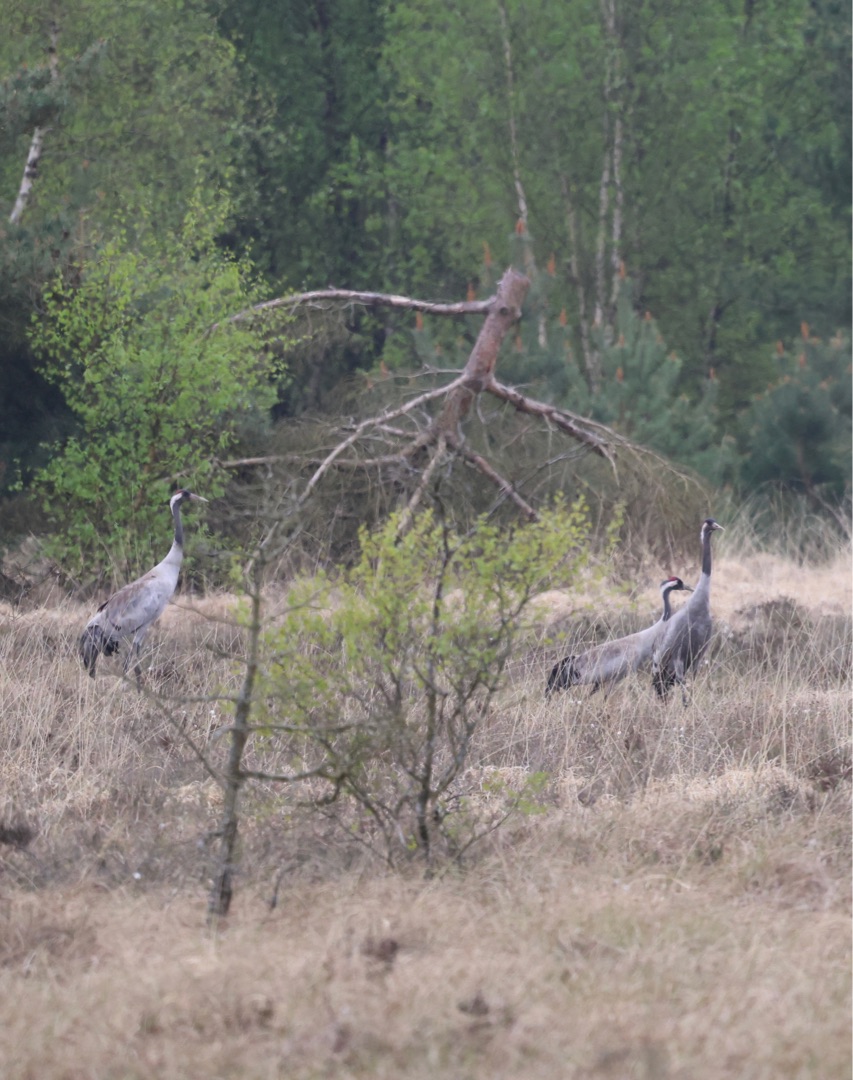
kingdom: Animalia
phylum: Chordata
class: Aves
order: Gruiformes
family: Gruidae
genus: Grus
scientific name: Grus grus
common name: Trane
